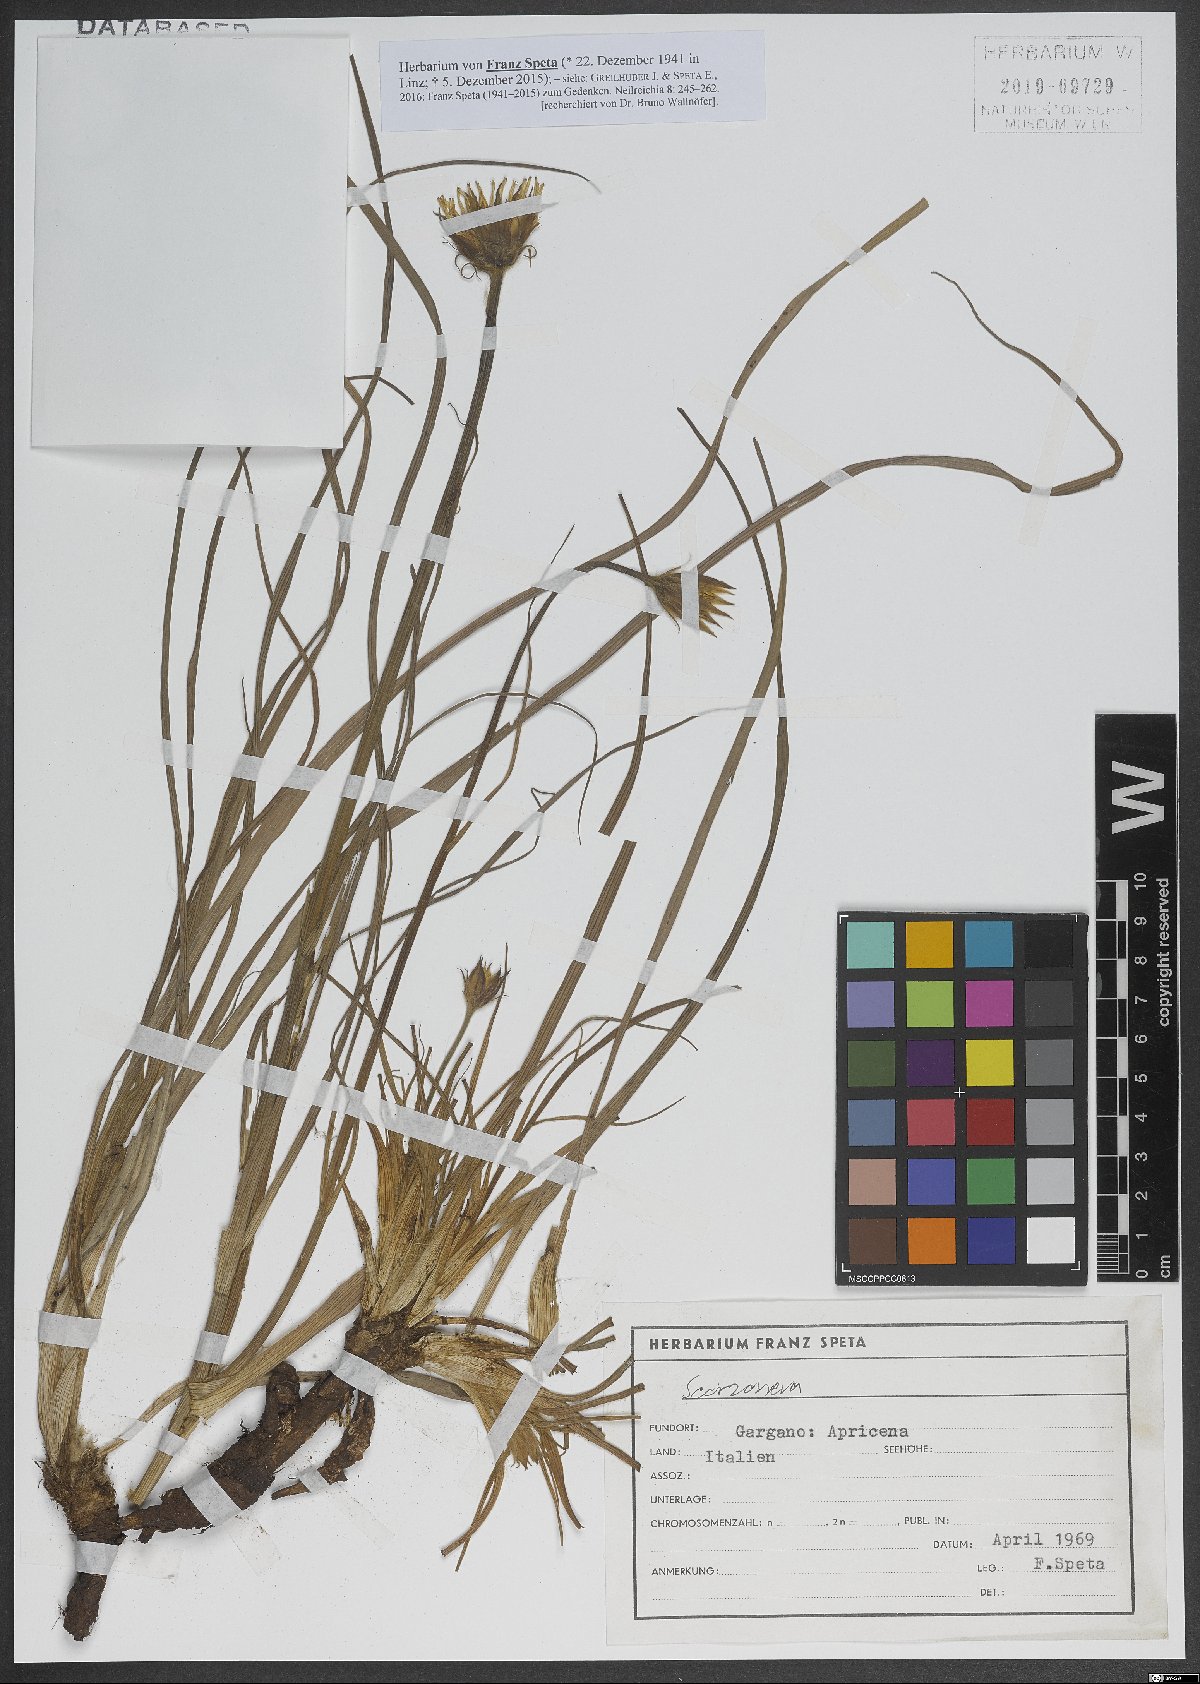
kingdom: Plantae
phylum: Tracheophyta
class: Magnoliopsida
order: Asterales
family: Asteraceae
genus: Scorzonera
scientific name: Scorzonera
